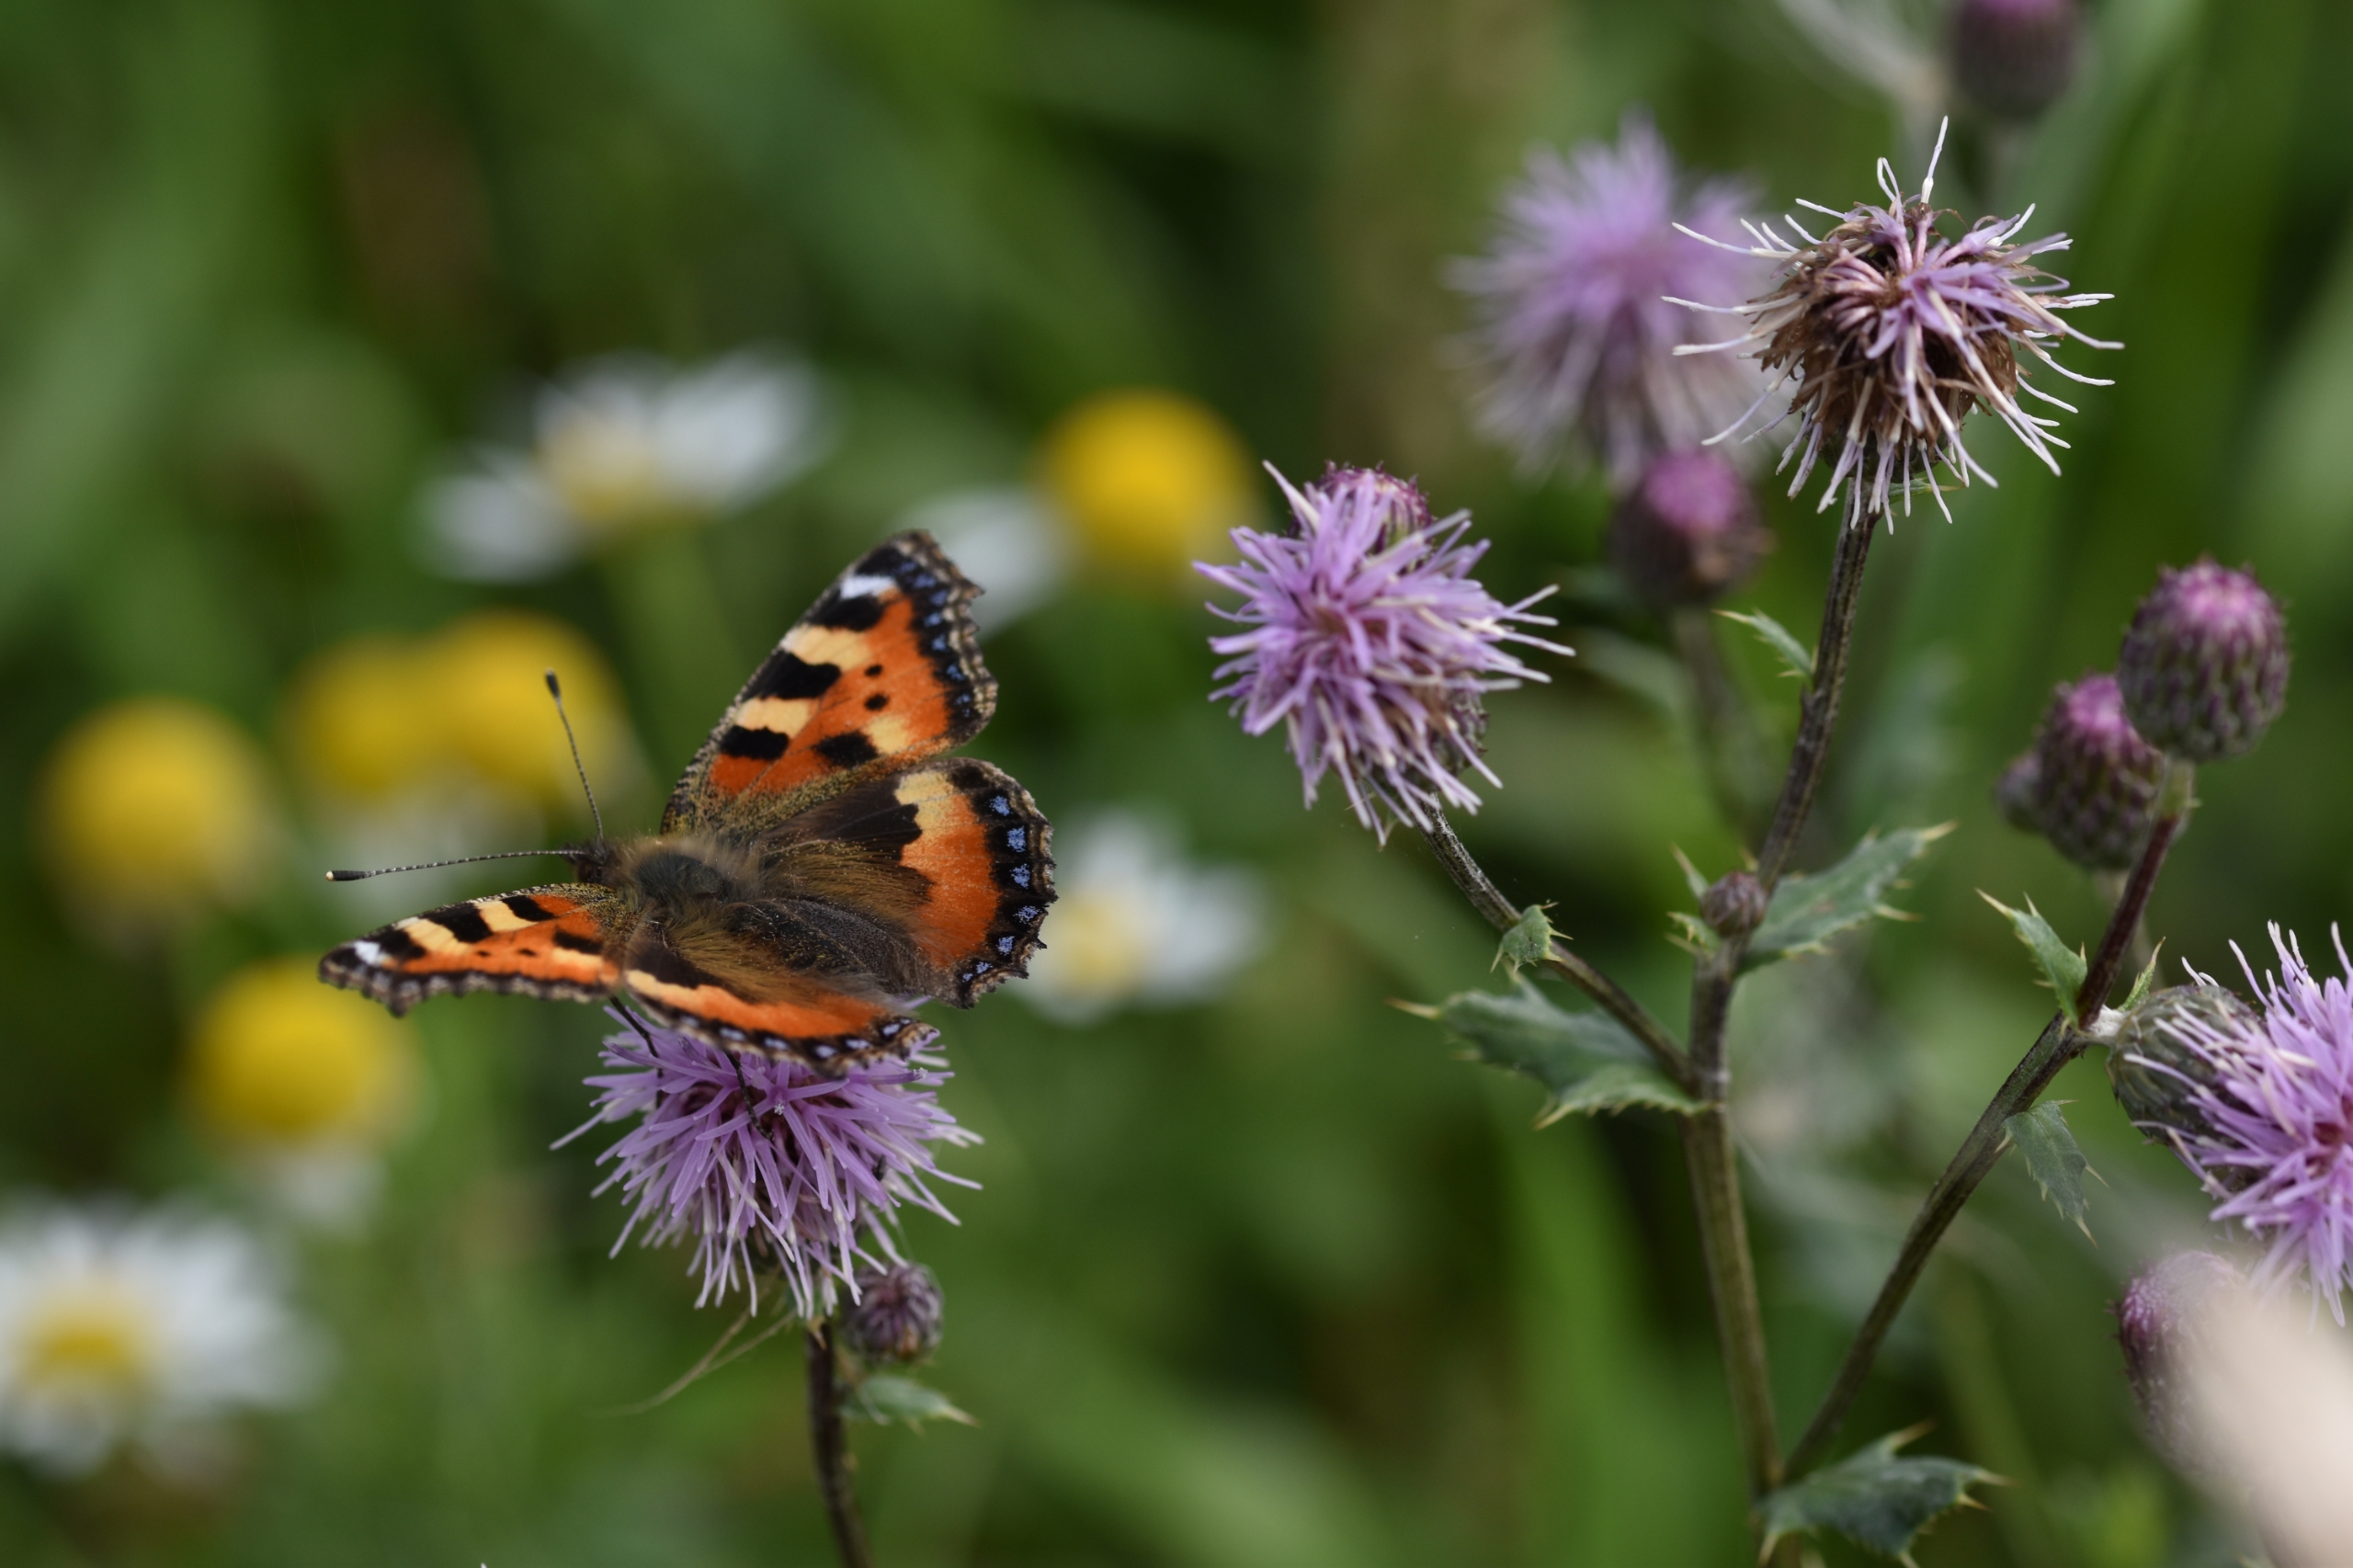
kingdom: Animalia
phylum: Arthropoda
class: Insecta
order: Lepidoptera
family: Nymphalidae
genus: Aglais
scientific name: Aglais urticae
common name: Nældens takvinge
